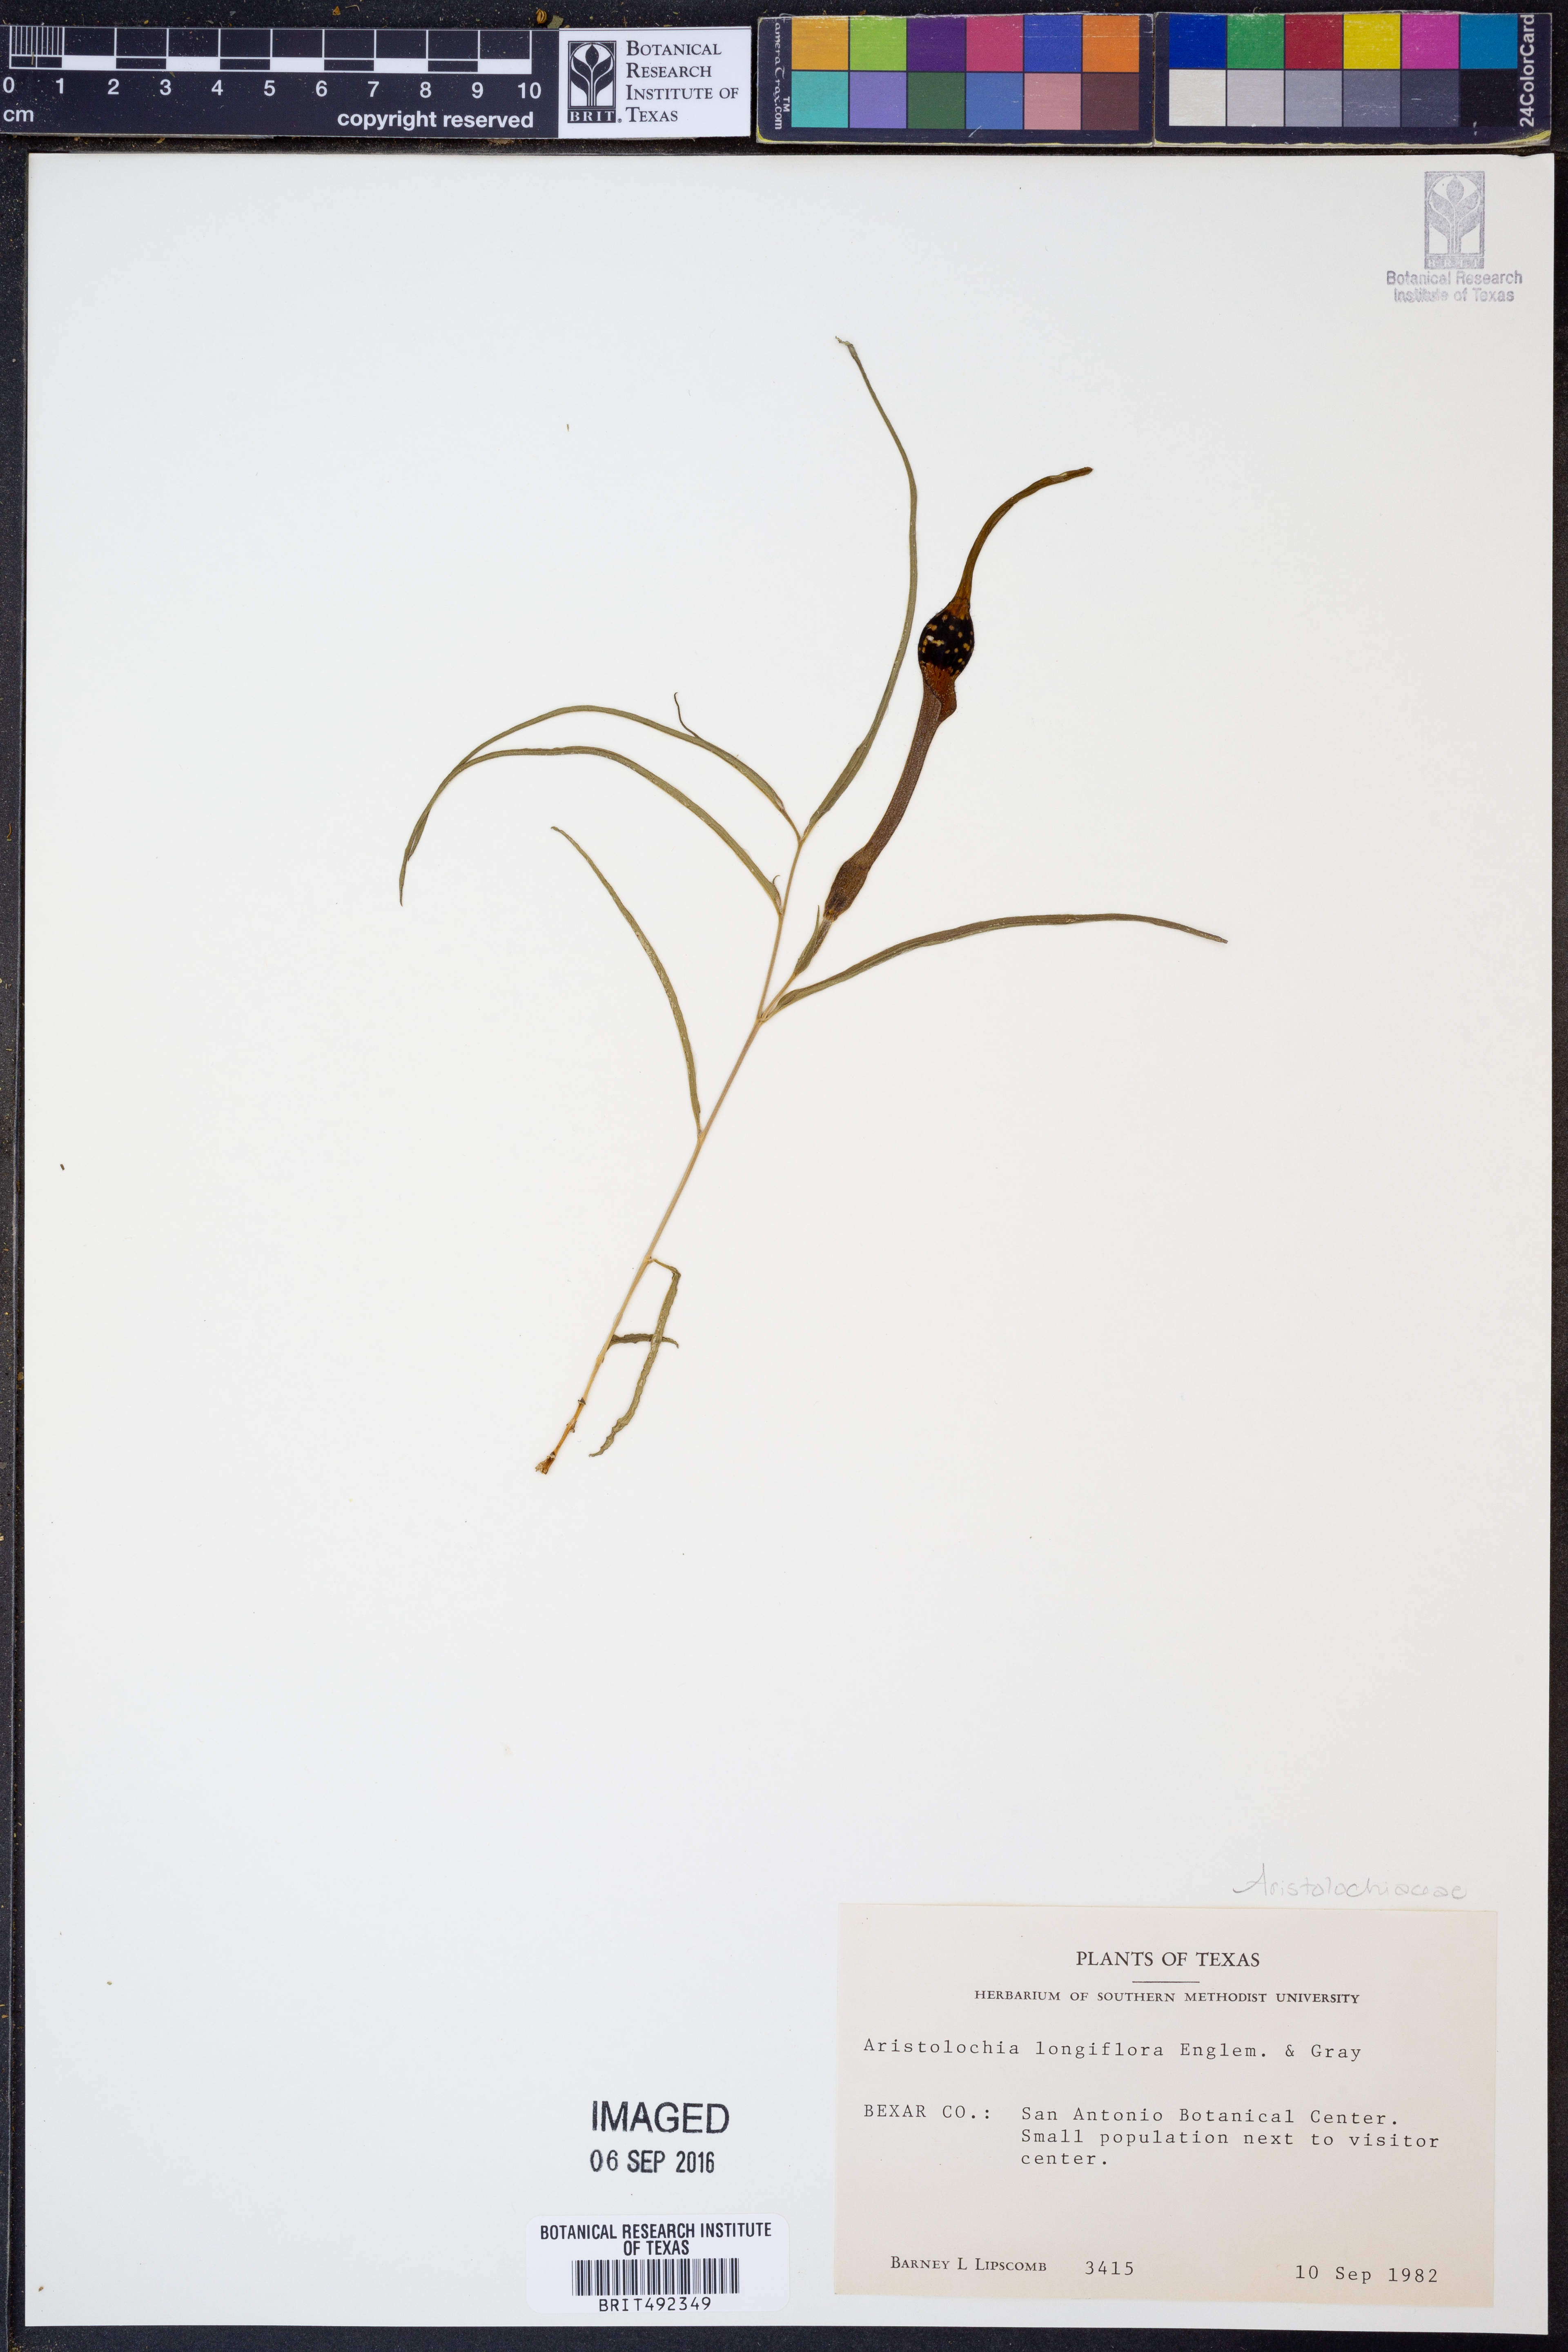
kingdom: Plantae
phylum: Tracheophyta
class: Magnoliopsida
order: Piperales
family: Aristolochiaceae
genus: Aristolochia
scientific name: Aristolochia acuminata
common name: Indian birthwort
